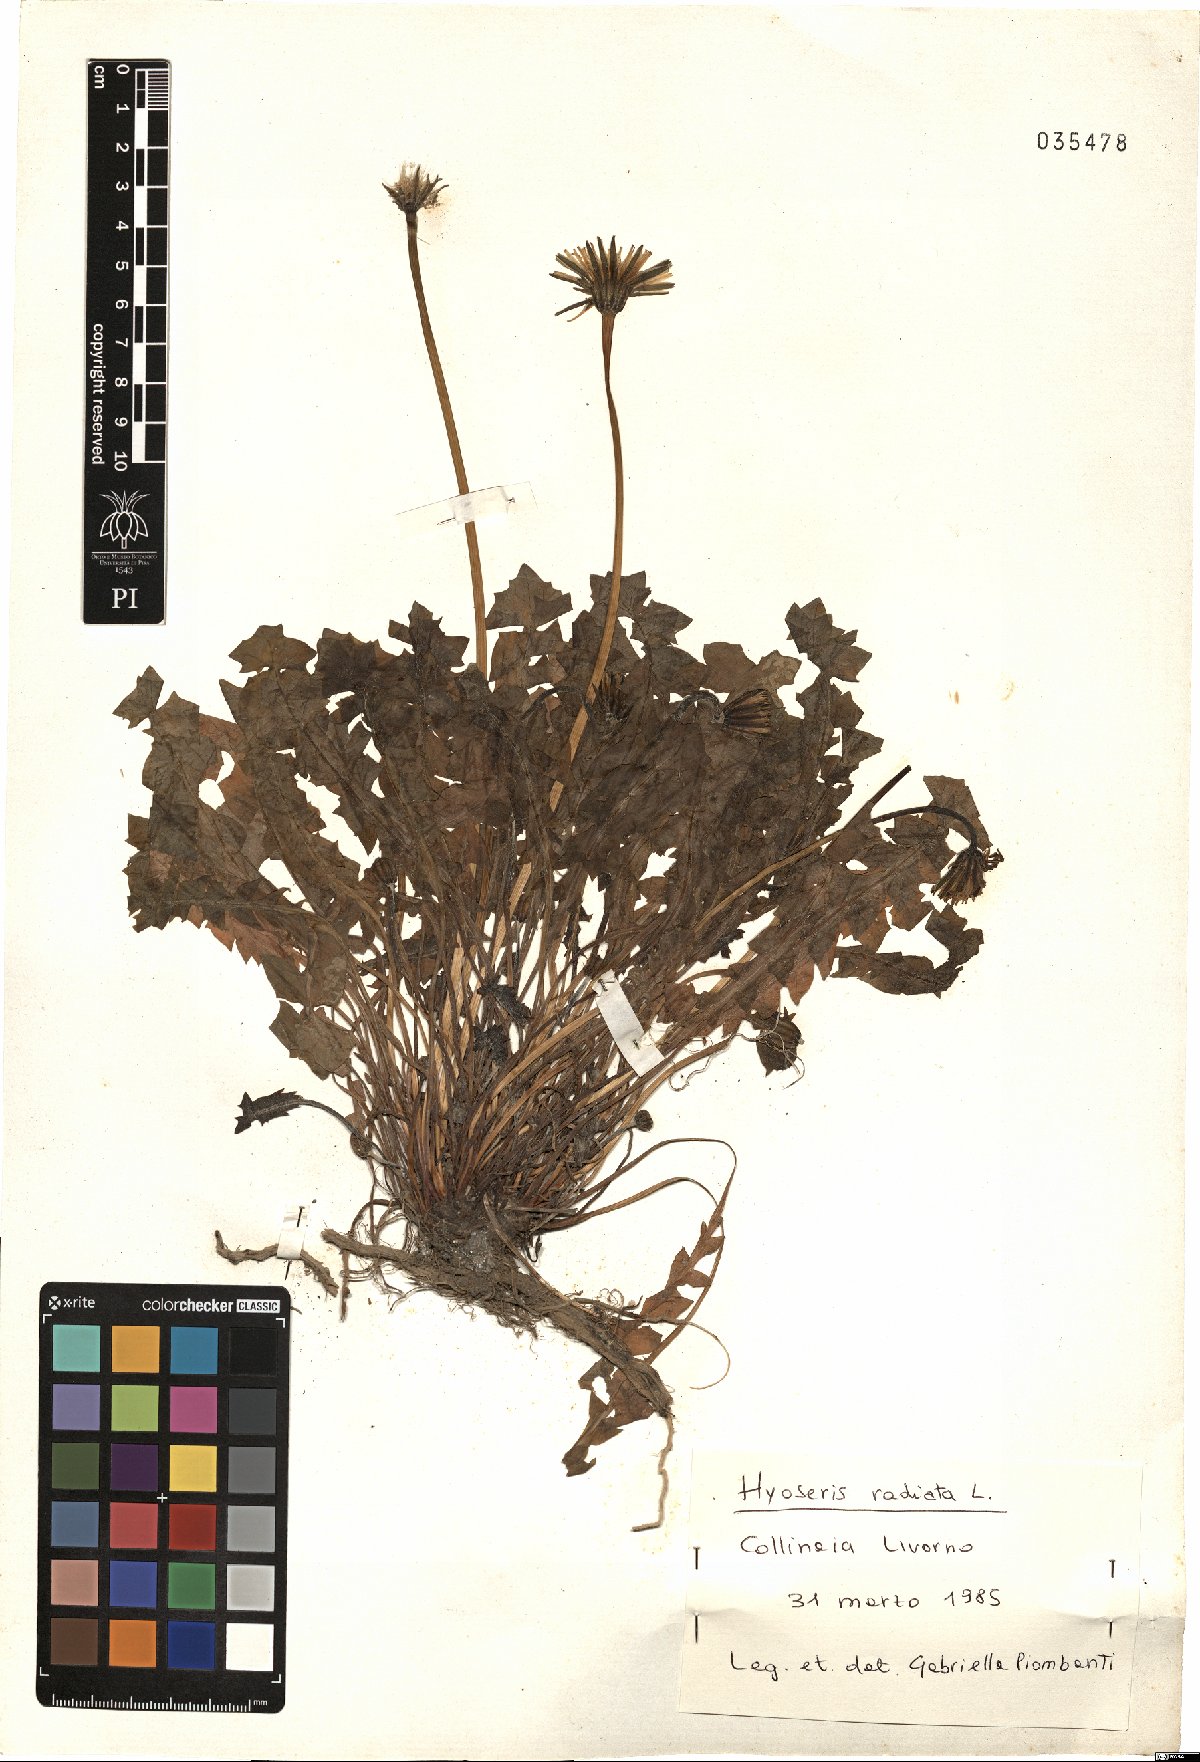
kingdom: Plantae
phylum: Tracheophyta
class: Magnoliopsida
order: Asterales
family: Asteraceae
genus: Hyoseris
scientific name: Hyoseris radiata
